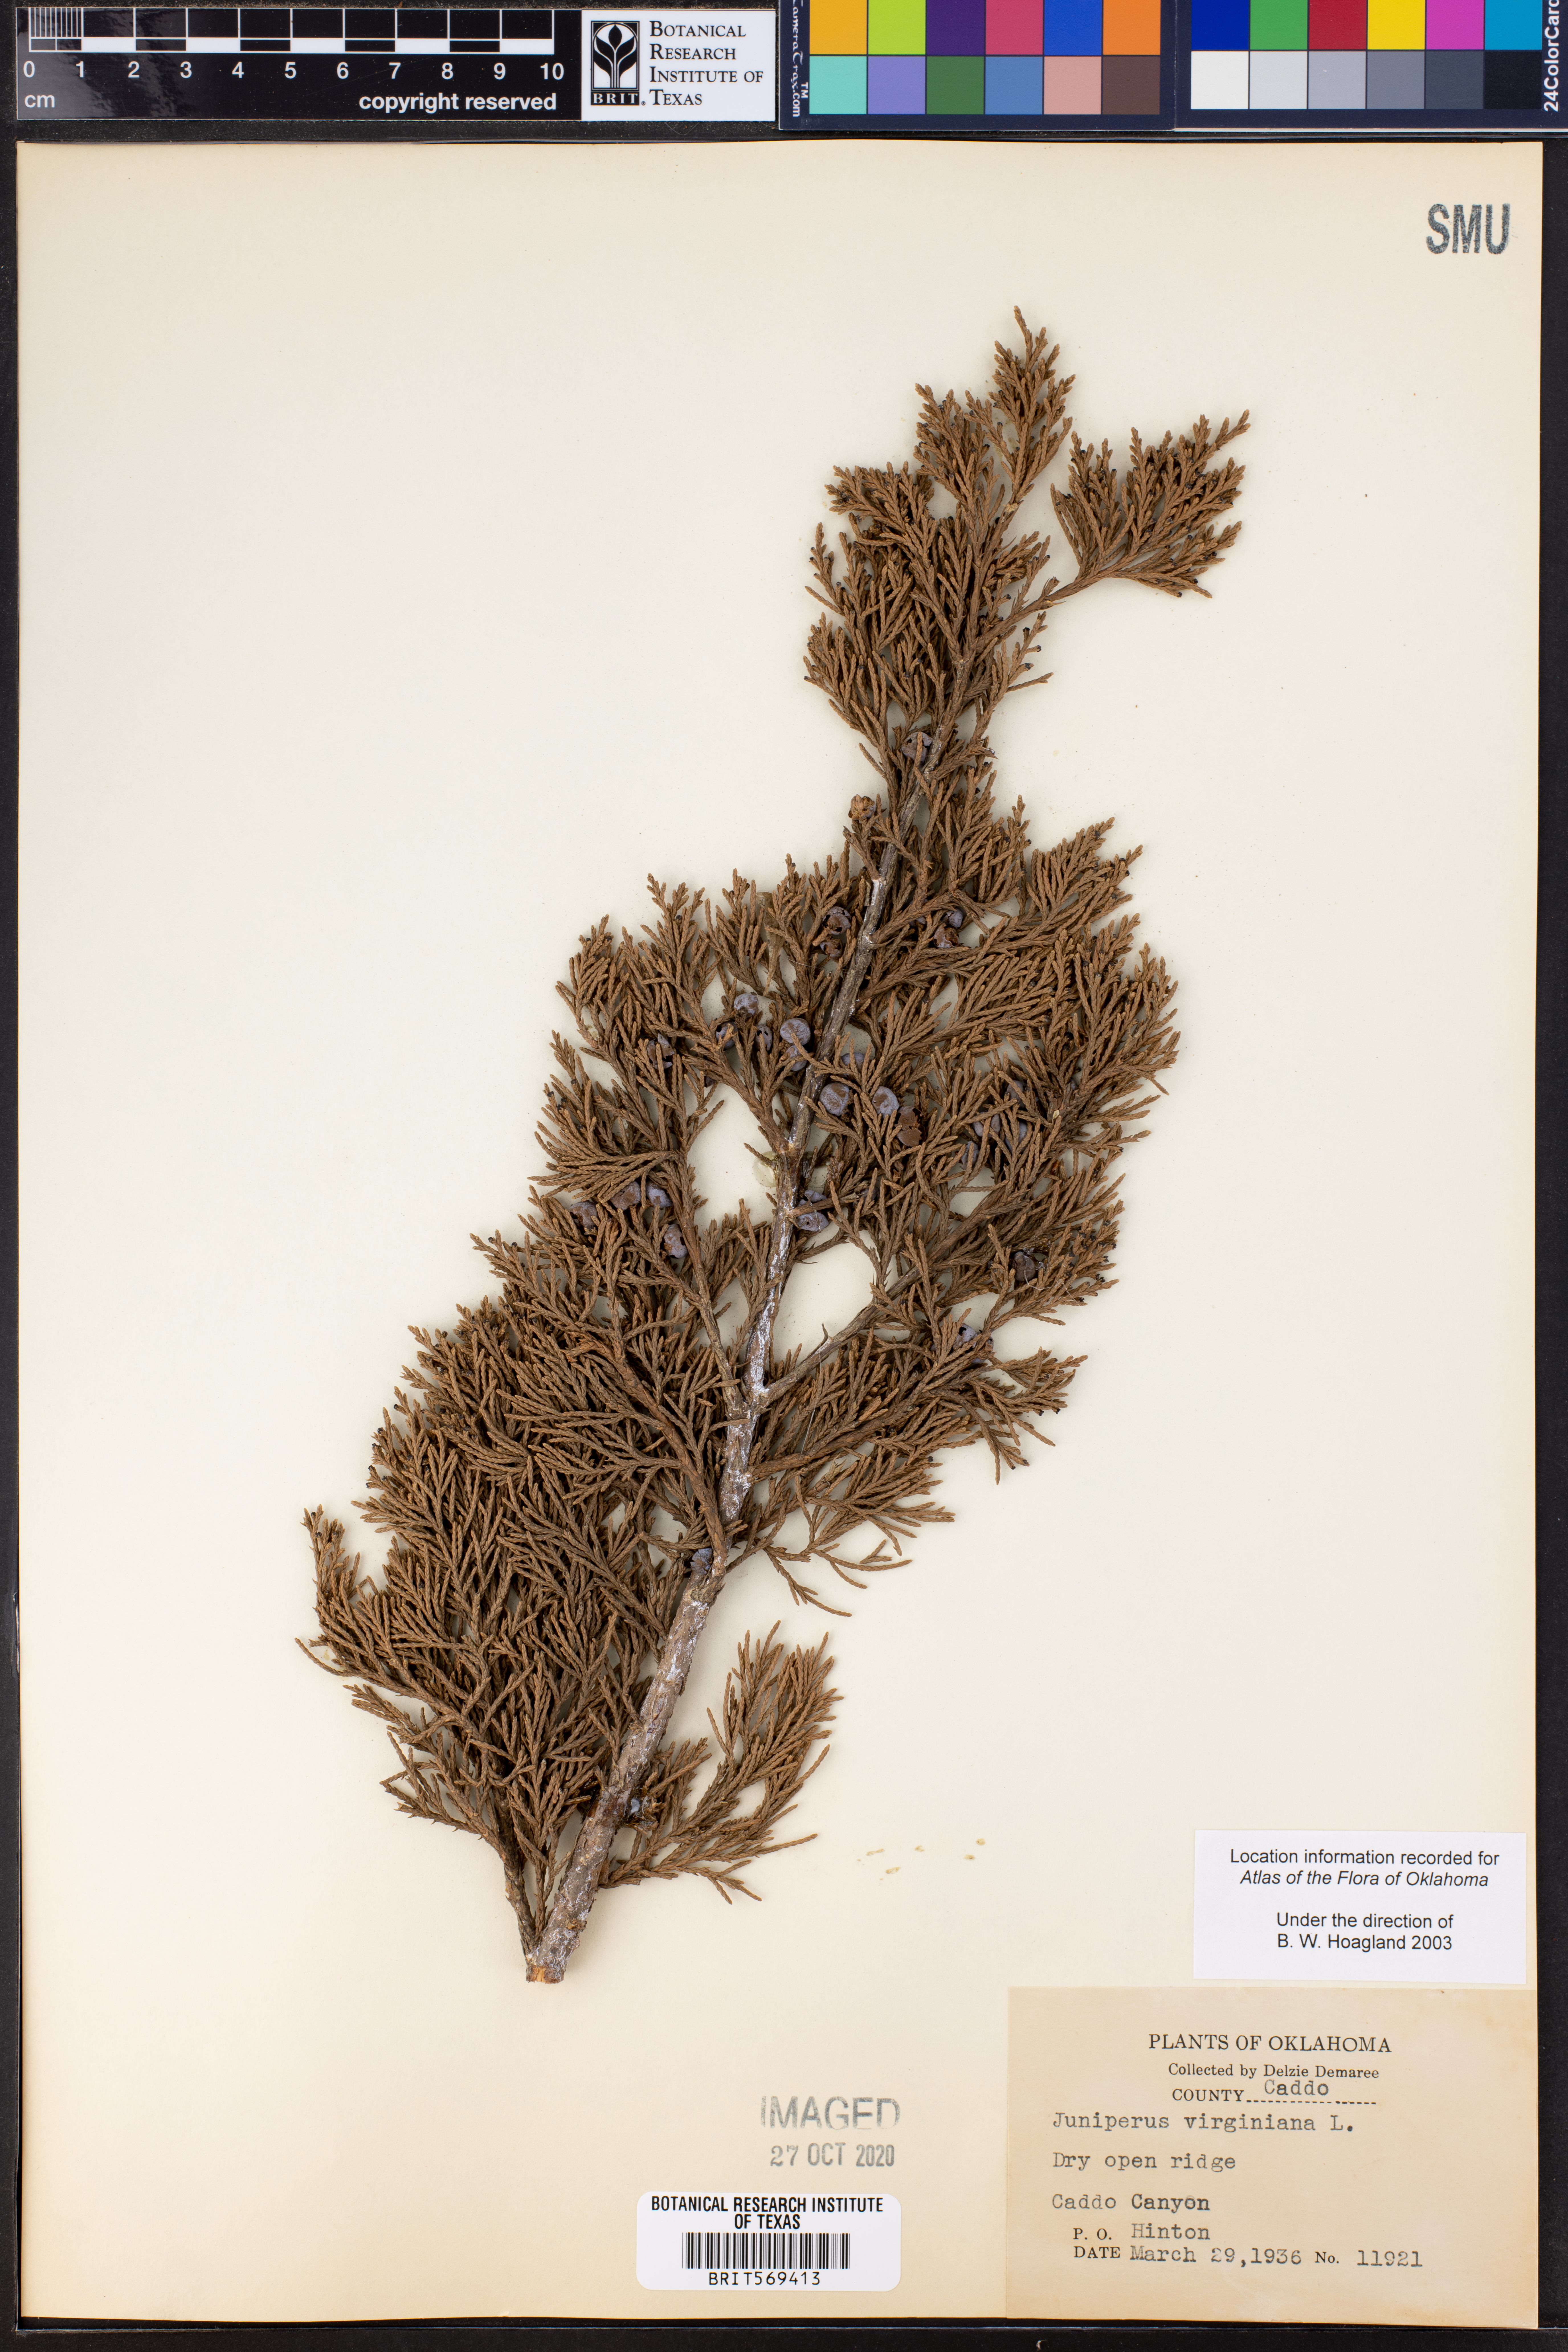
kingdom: Plantae
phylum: Tracheophyta
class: Pinopsida
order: Pinales
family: Cupressaceae
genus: Juniperus
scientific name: Juniperus virginiana
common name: Red juniper
